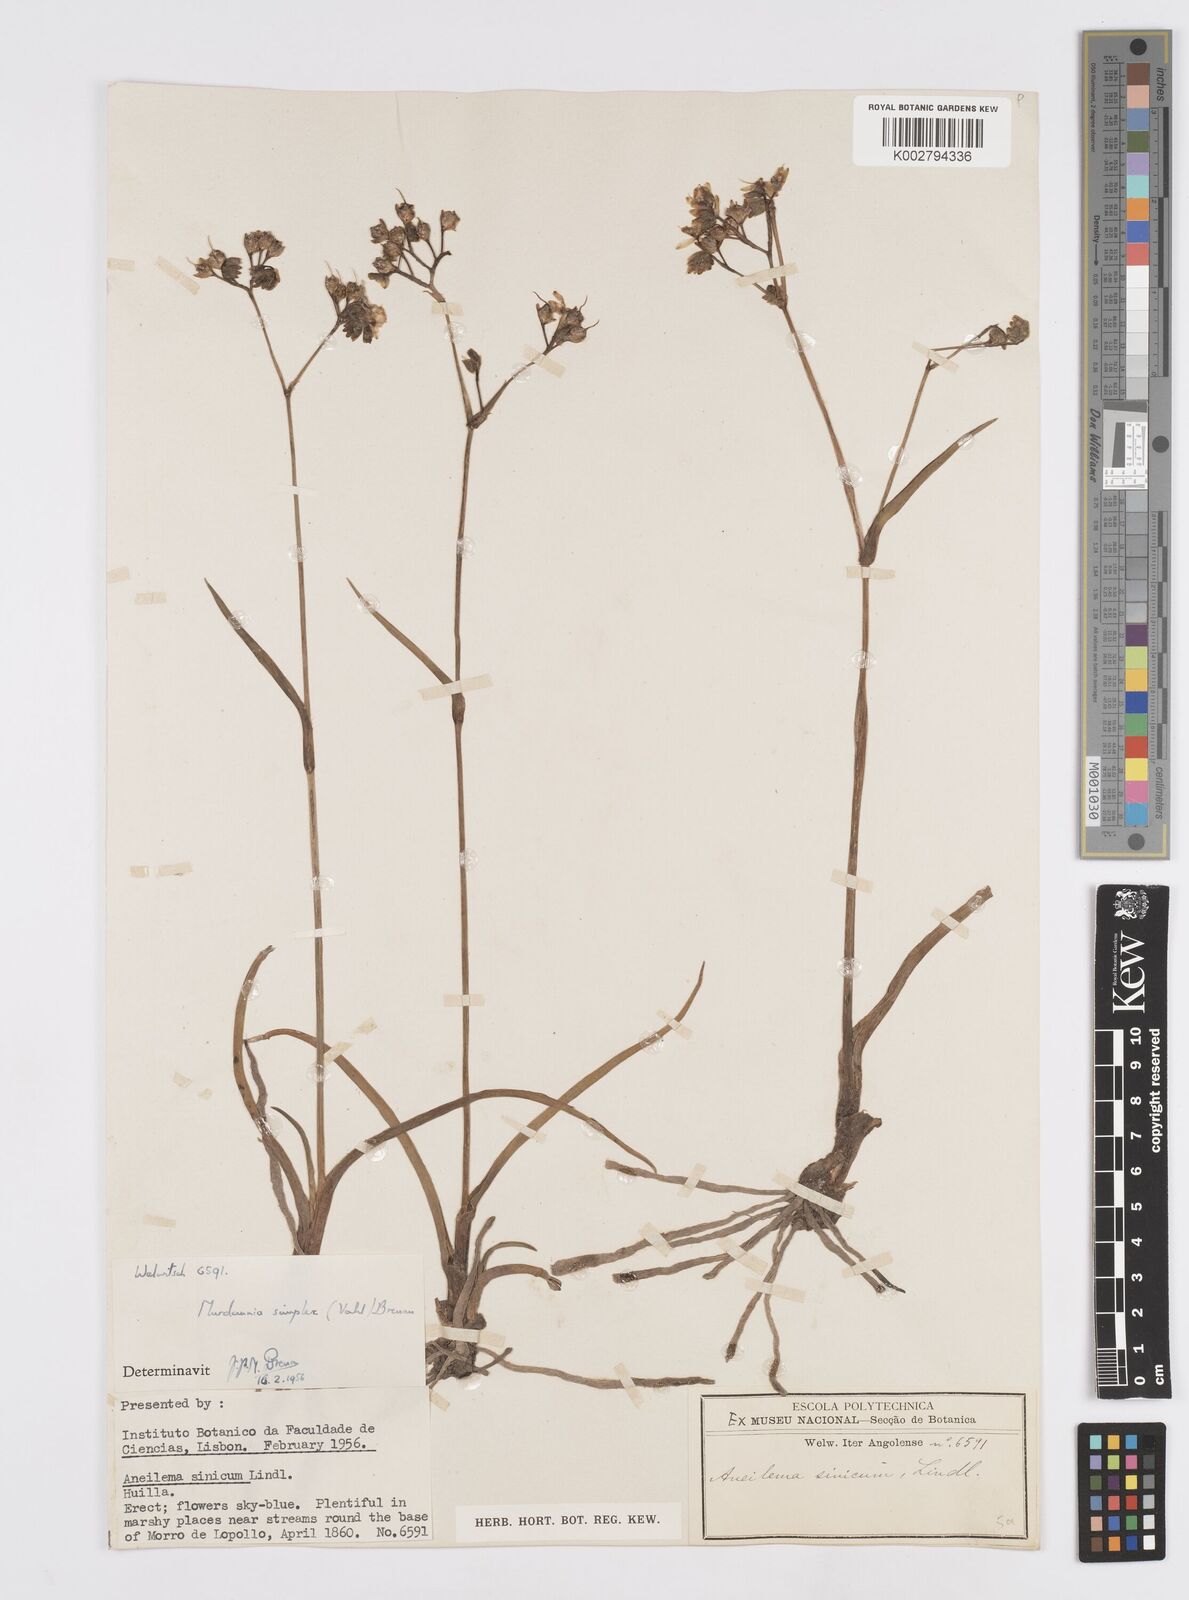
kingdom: Plantae
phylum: Tracheophyta
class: Liliopsida
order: Commelinales
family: Commelinaceae
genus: Murdannia
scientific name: Murdannia simplex
